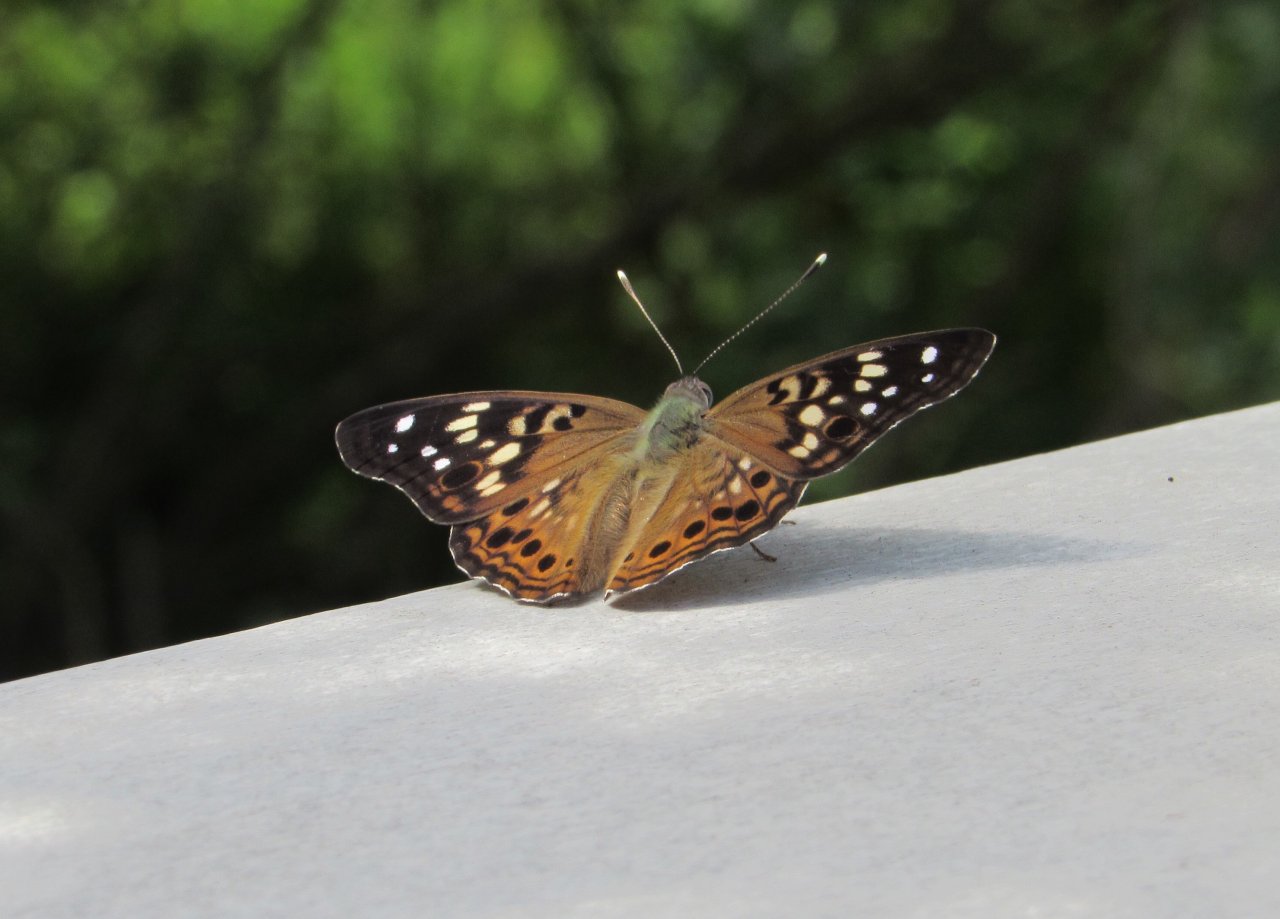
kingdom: Animalia
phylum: Arthropoda
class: Insecta
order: Lepidoptera
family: Nymphalidae
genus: Asterocampa
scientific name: Asterocampa celtis
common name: Hackberry Emperor
